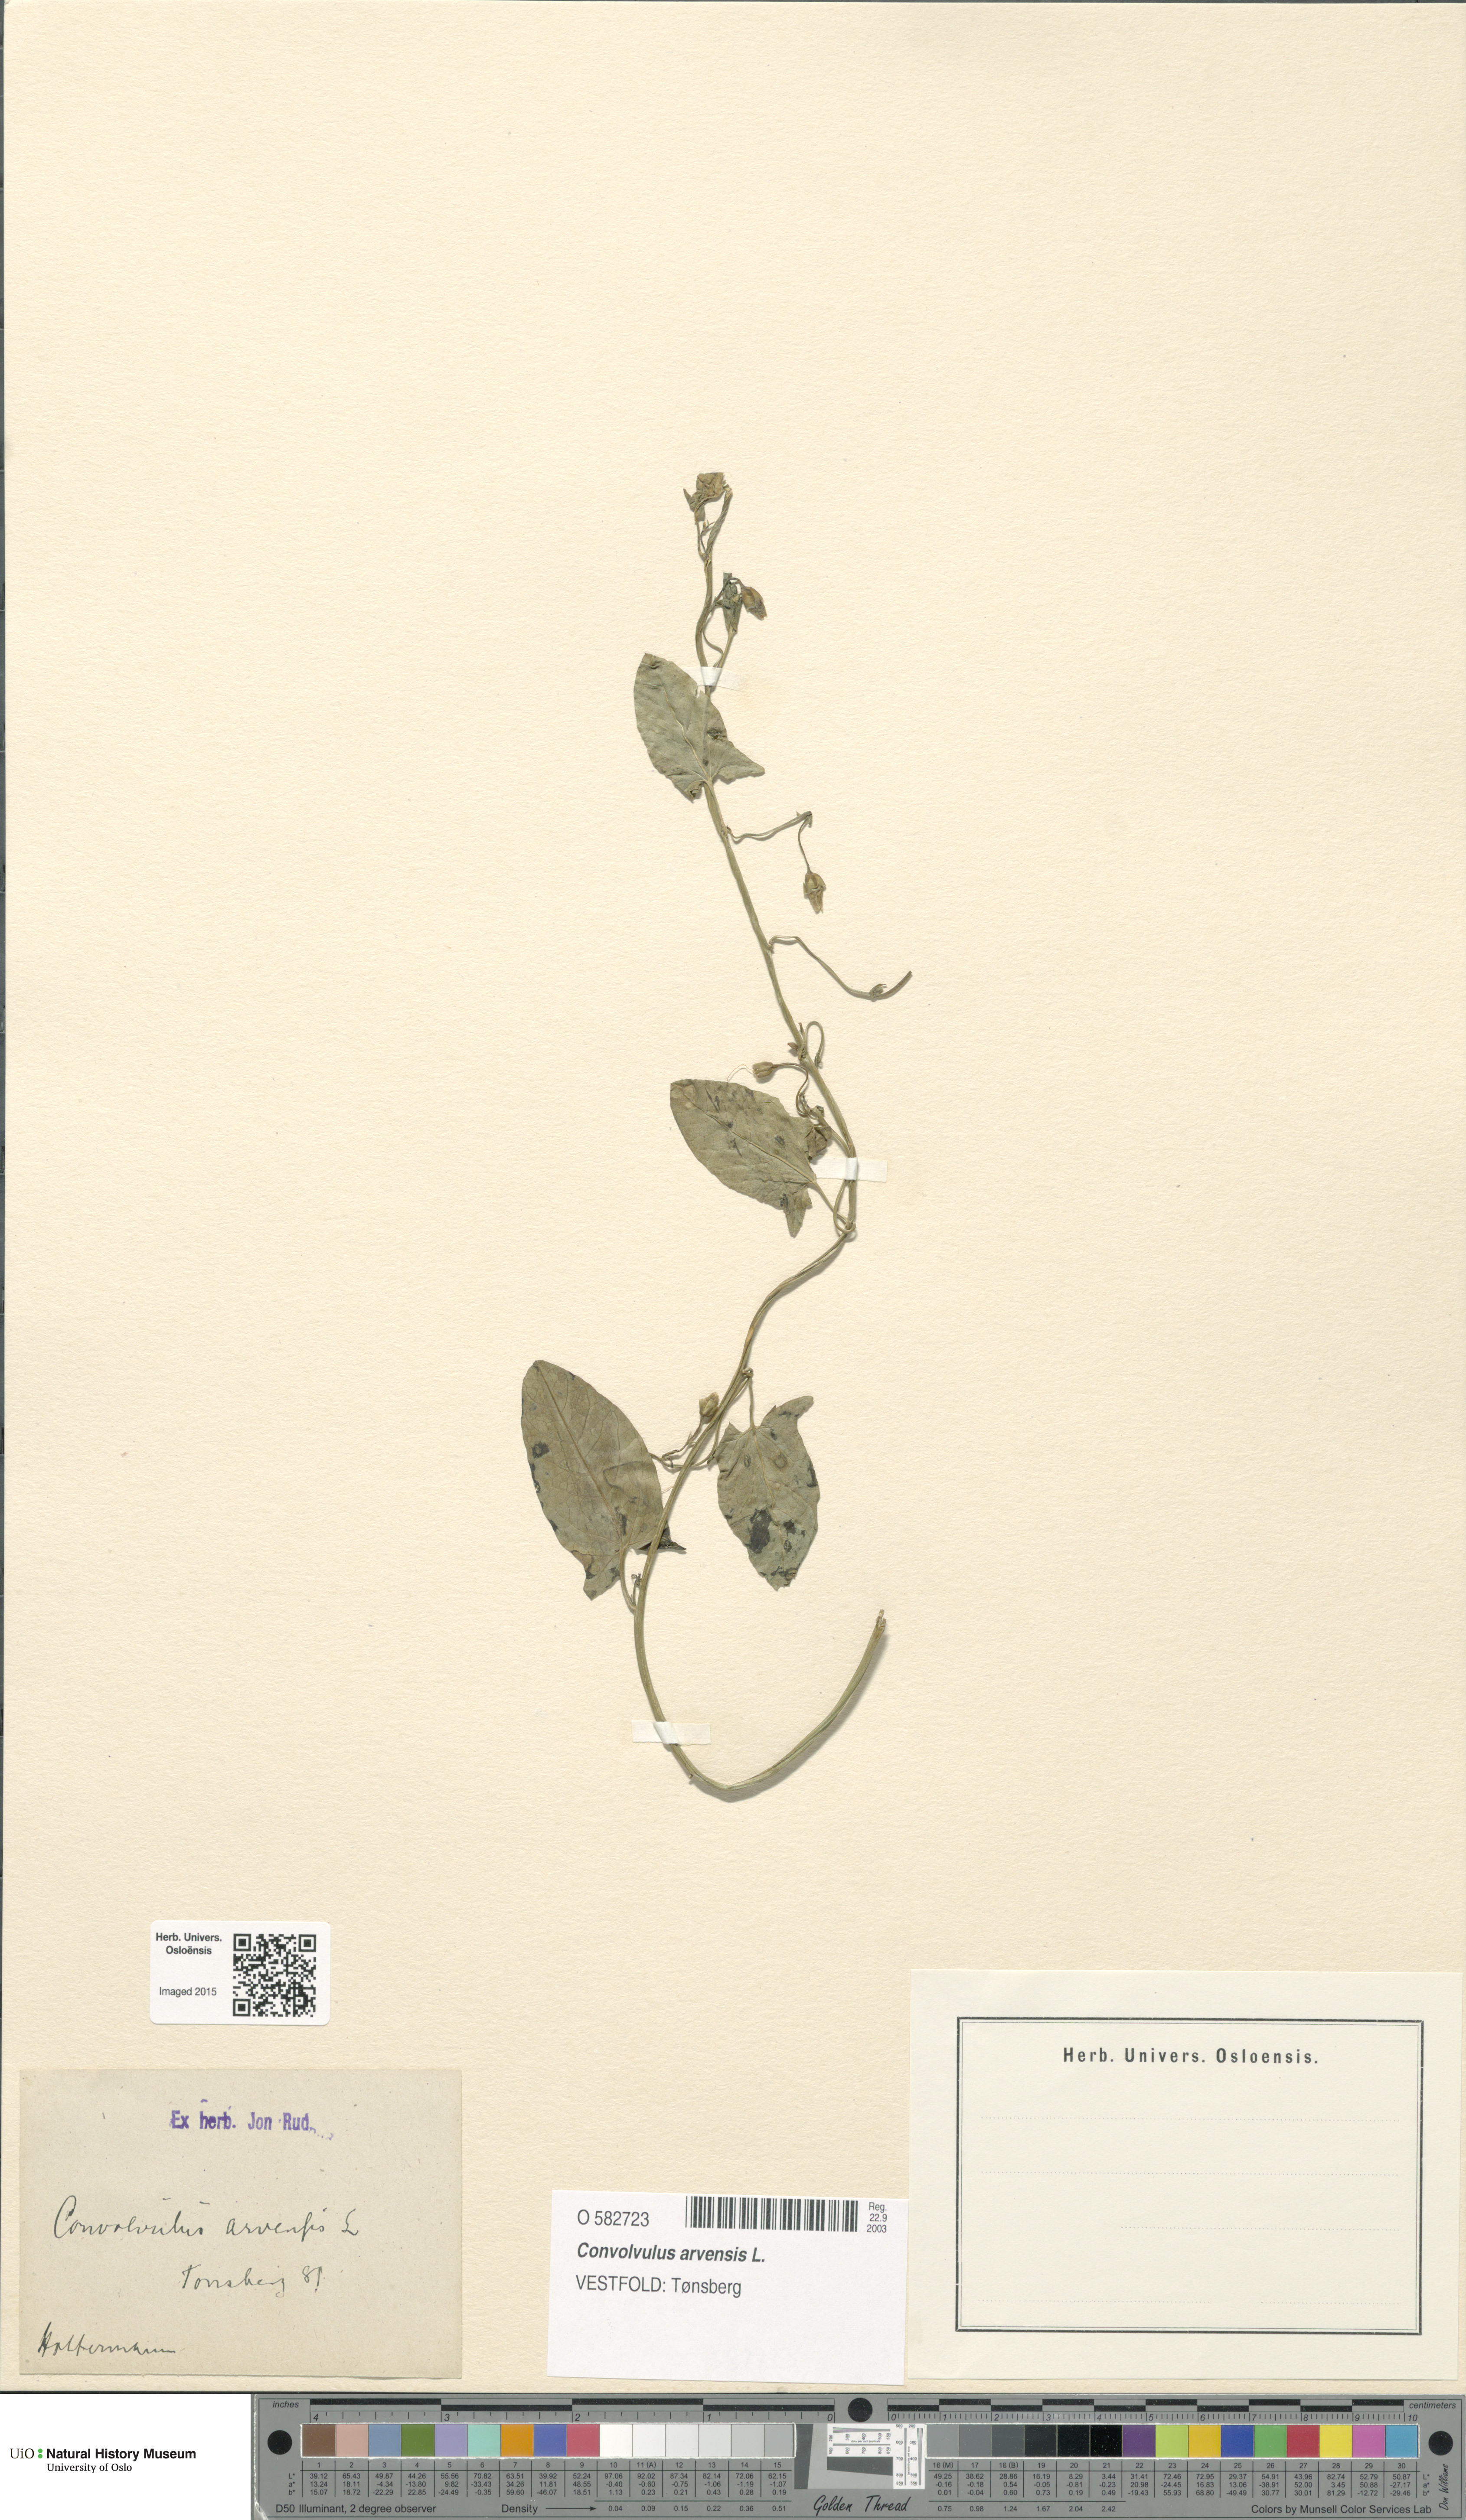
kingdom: Plantae
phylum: Tracheophyta
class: Magnoliopsida
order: Solanales
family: Convolvulaceae
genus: Convolvulus
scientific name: Convolvulus arvensis
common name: Field bindweed
